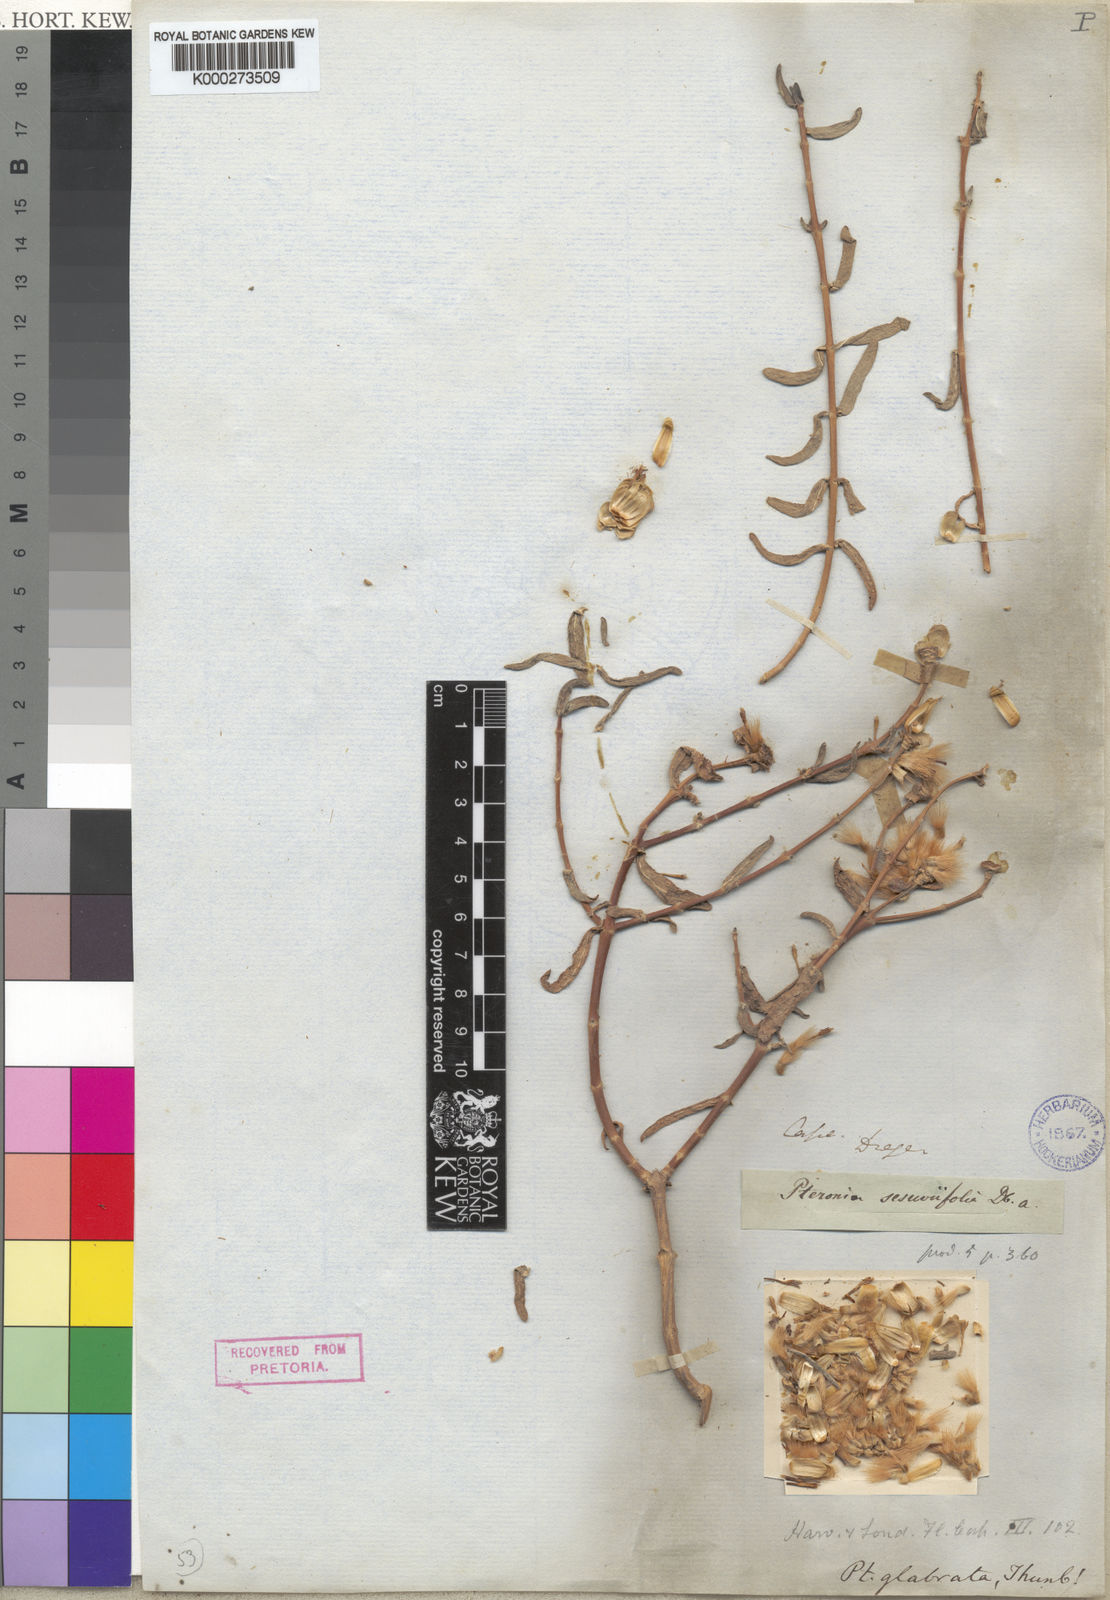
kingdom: Plantae
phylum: Tracheophyta
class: Magnoliopsida
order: Asterales
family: Asteraceae
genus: Pteronia
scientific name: Pteronia
